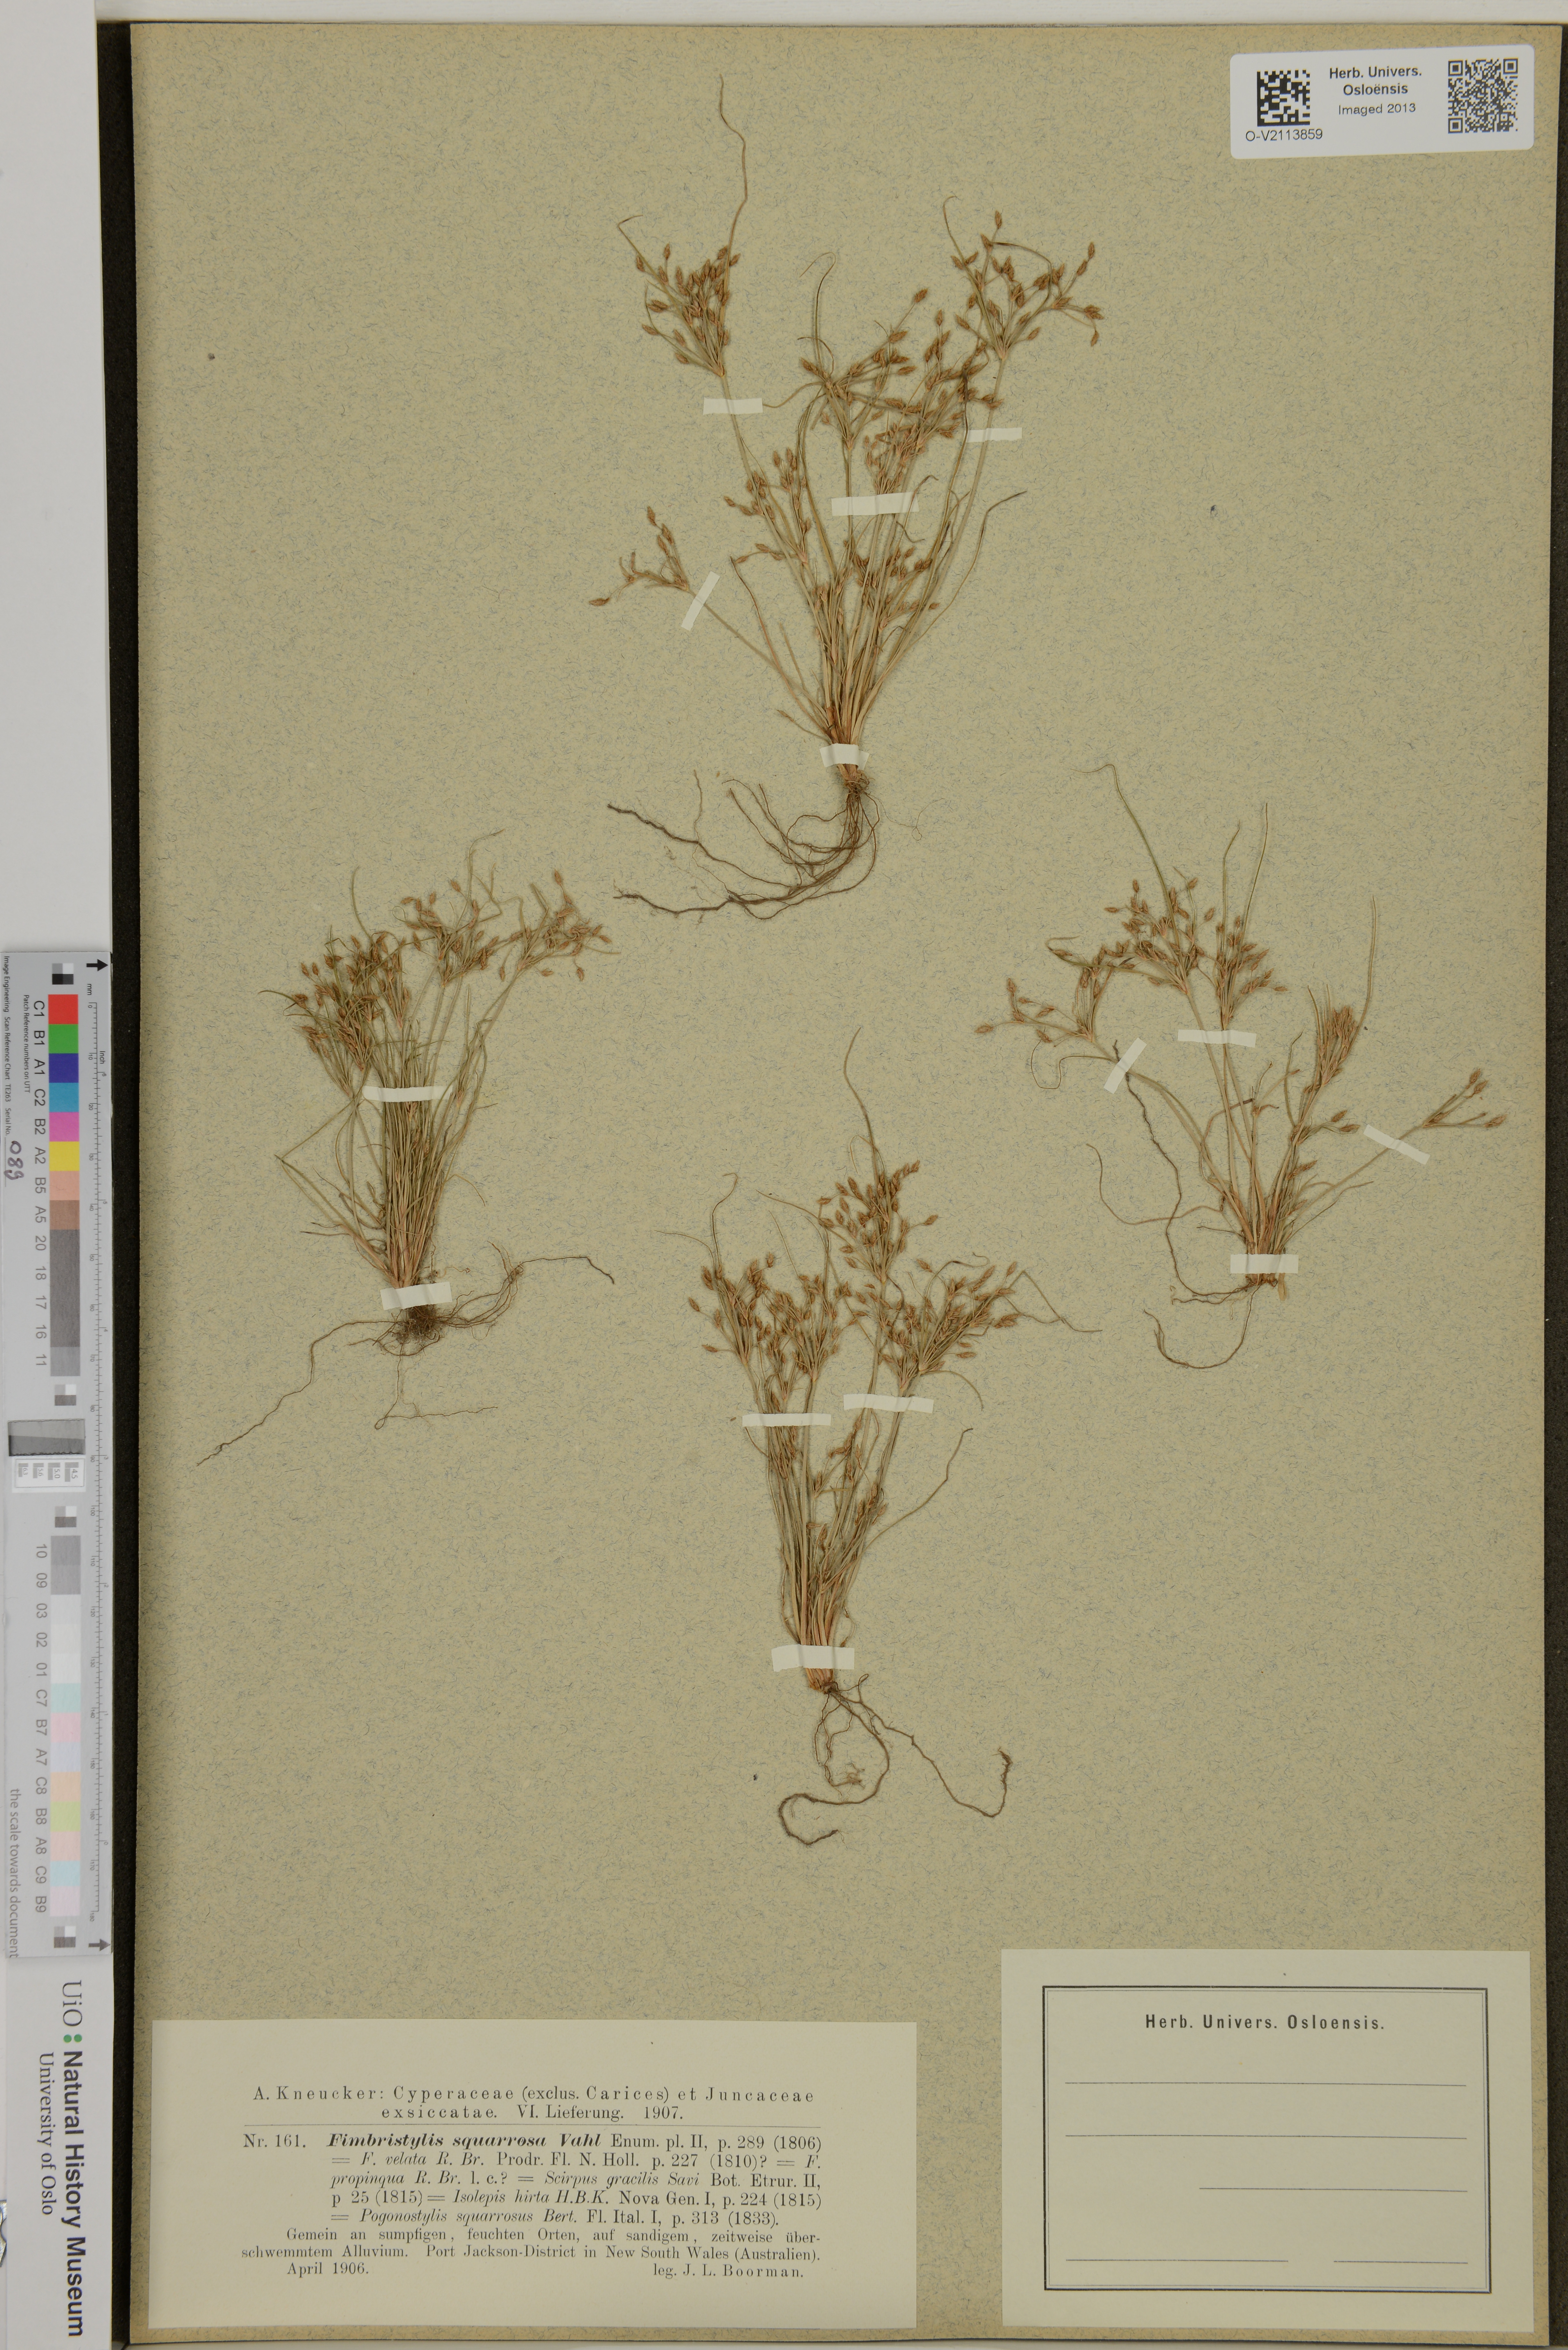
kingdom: Plantae
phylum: Tracheophyta
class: Liliopsida
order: Poales
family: Cyperaceae
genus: Fimbristylis
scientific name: Fimbristylis squarrosa
